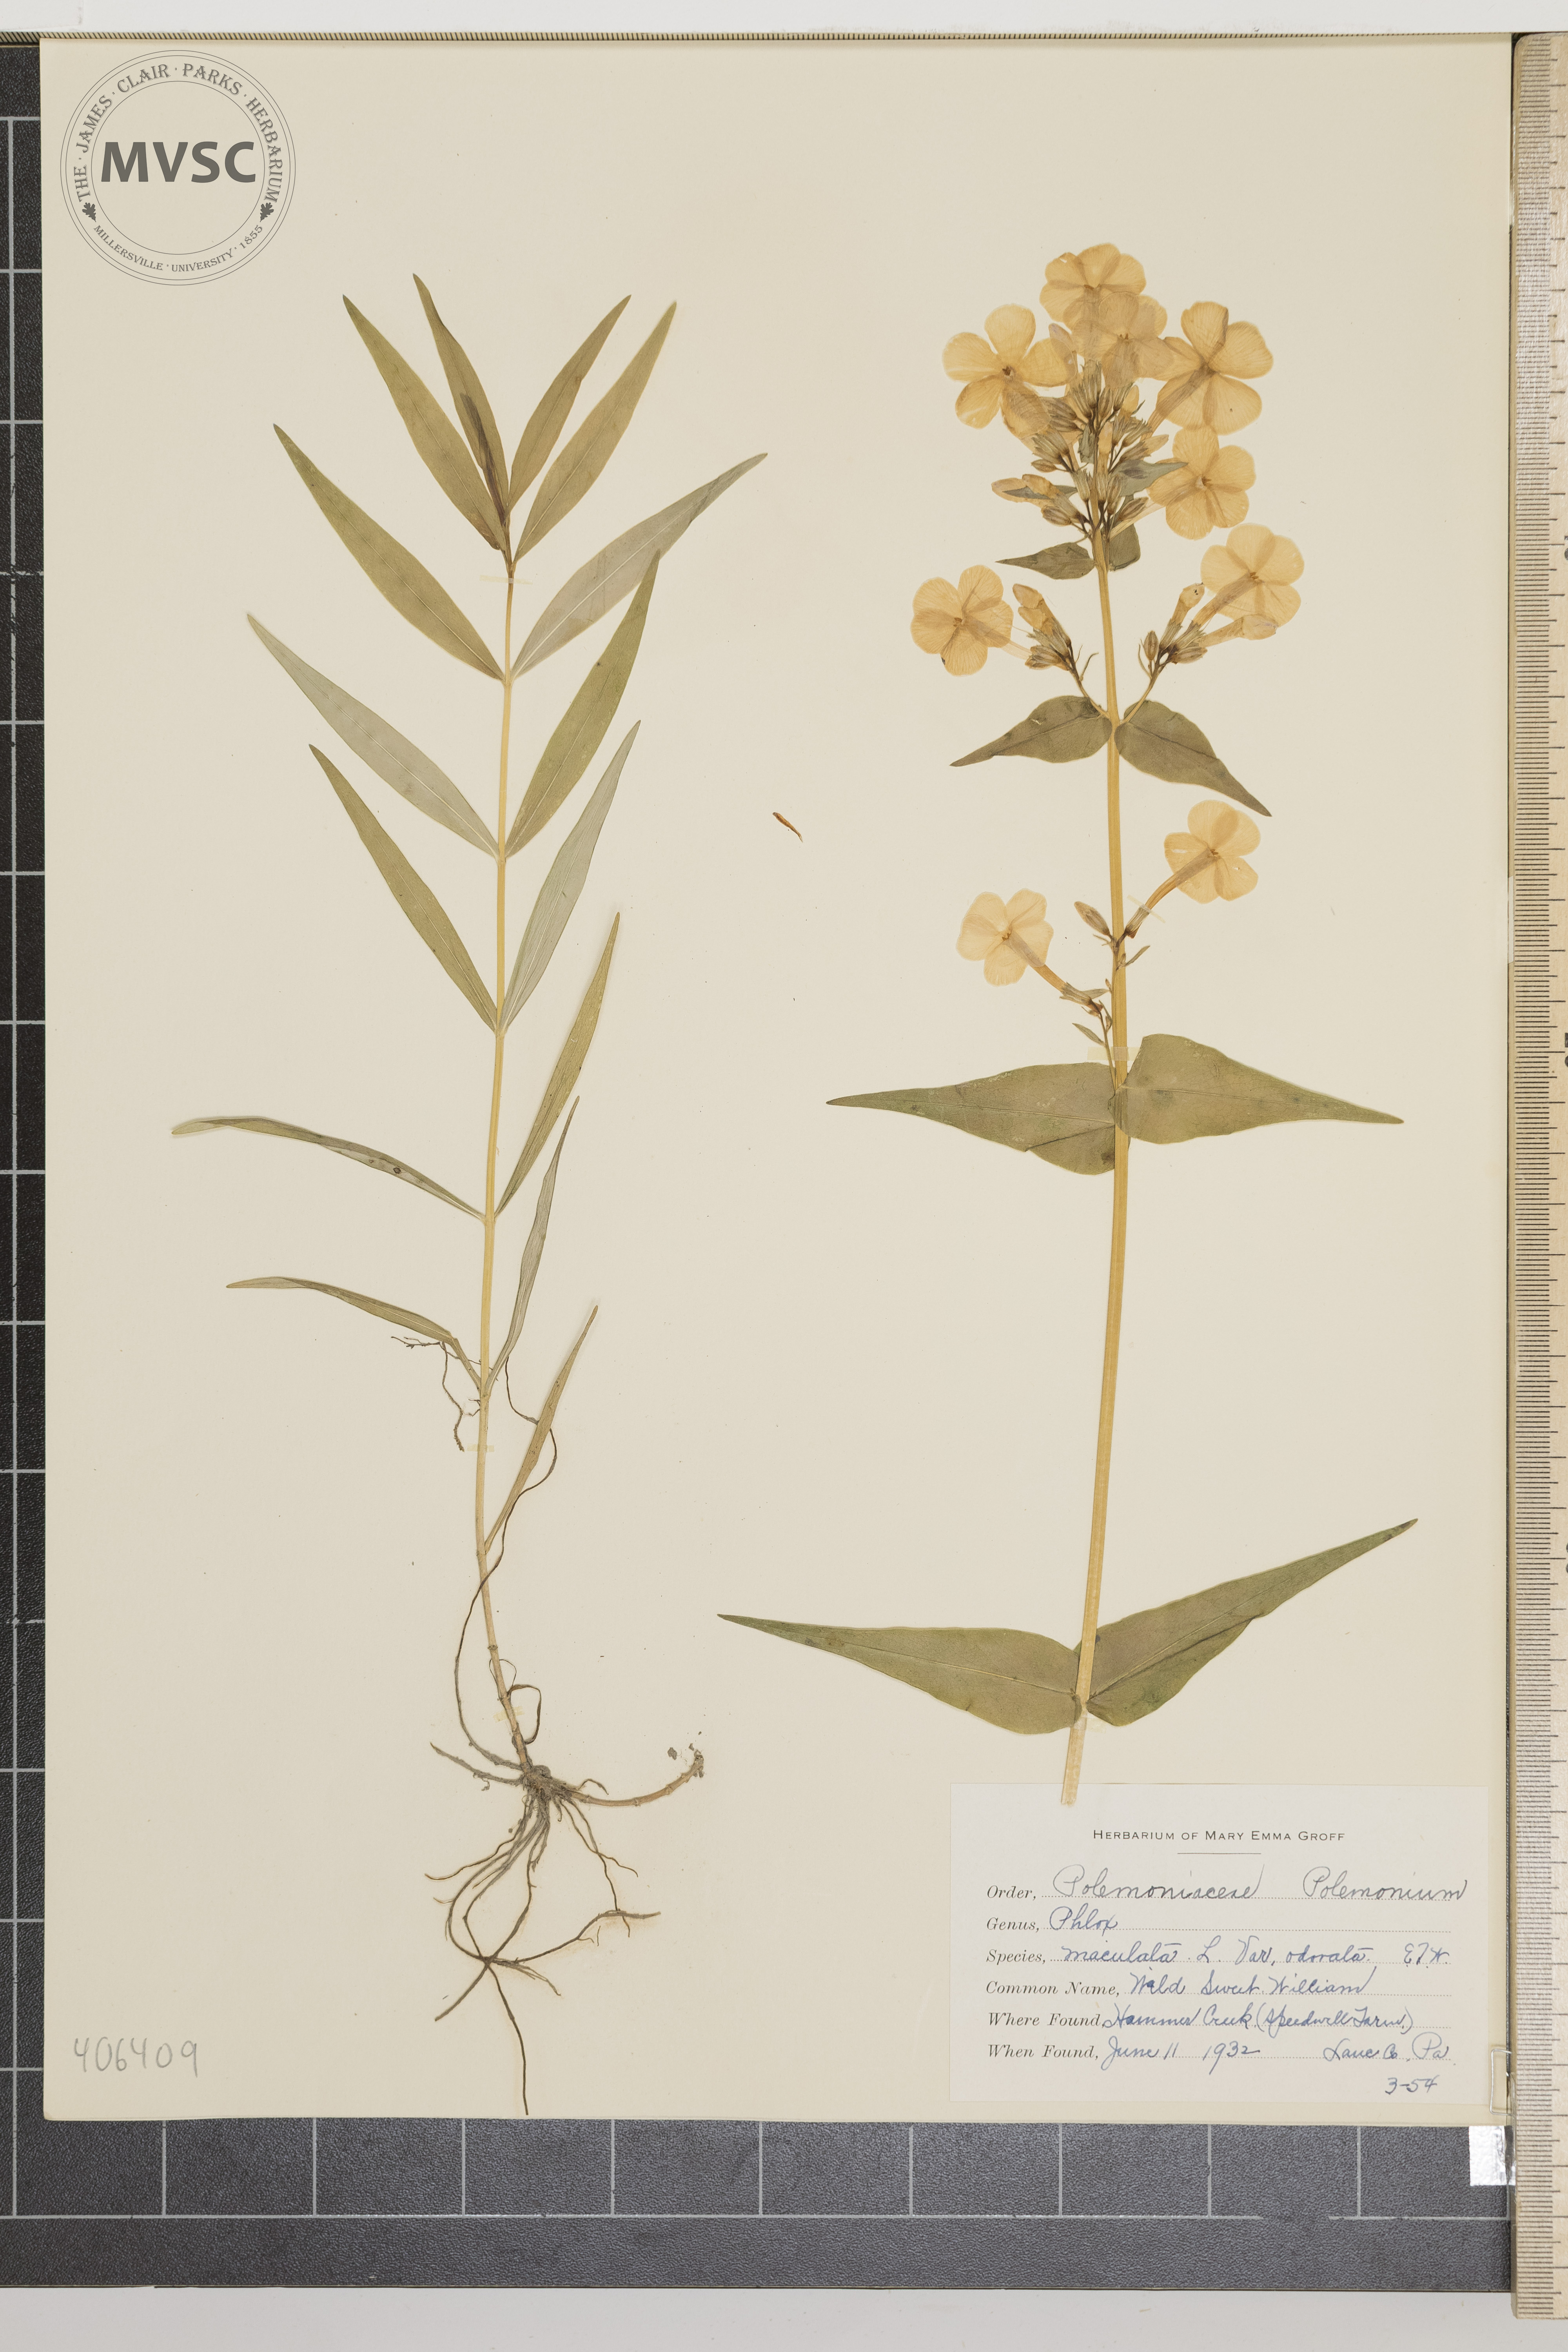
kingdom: Plantae
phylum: Tracheophyta
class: Magnoliopsida
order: Ericales
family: Polemoniaceae
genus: Phlox
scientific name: Phlox maculata
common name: Wild Sweet William
